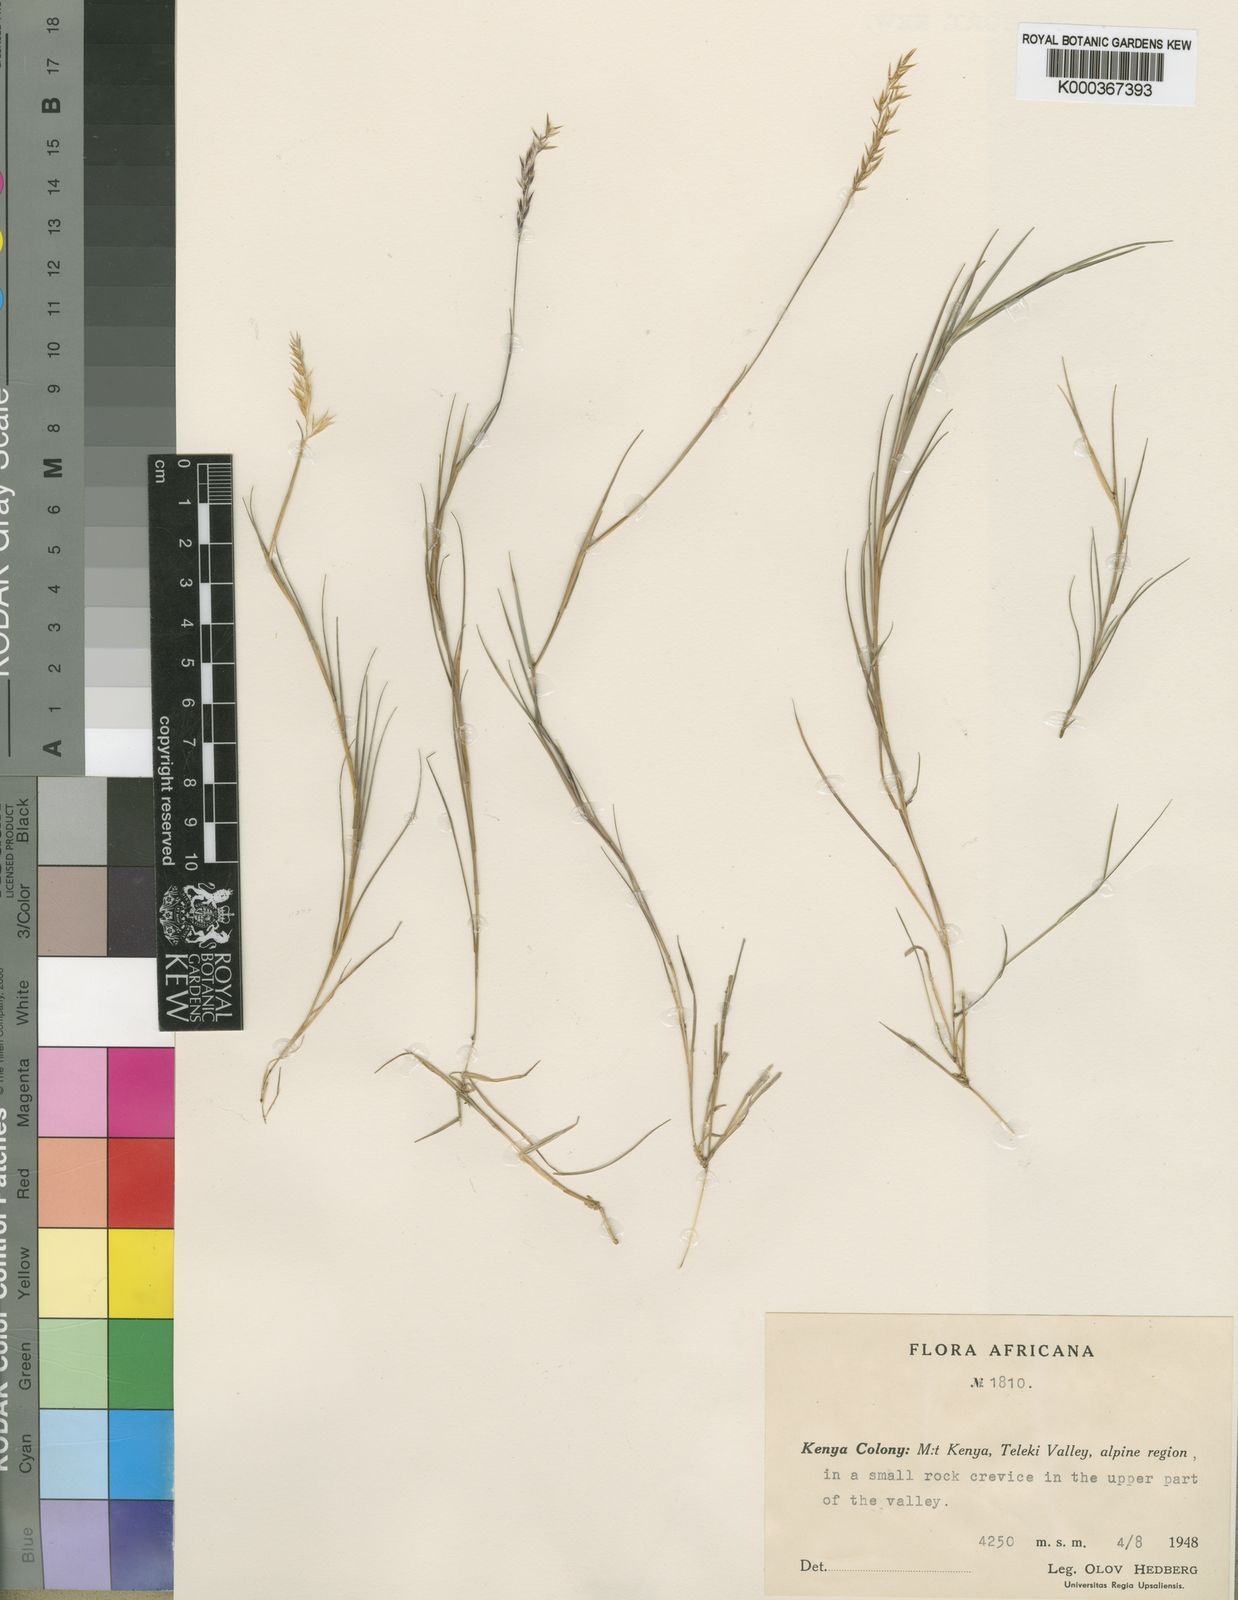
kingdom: Plantae
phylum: Tracheophyta
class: Liliopsida
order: Poales
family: Poaceae
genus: Calamagrostis
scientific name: Calamagrostis hedbergii
